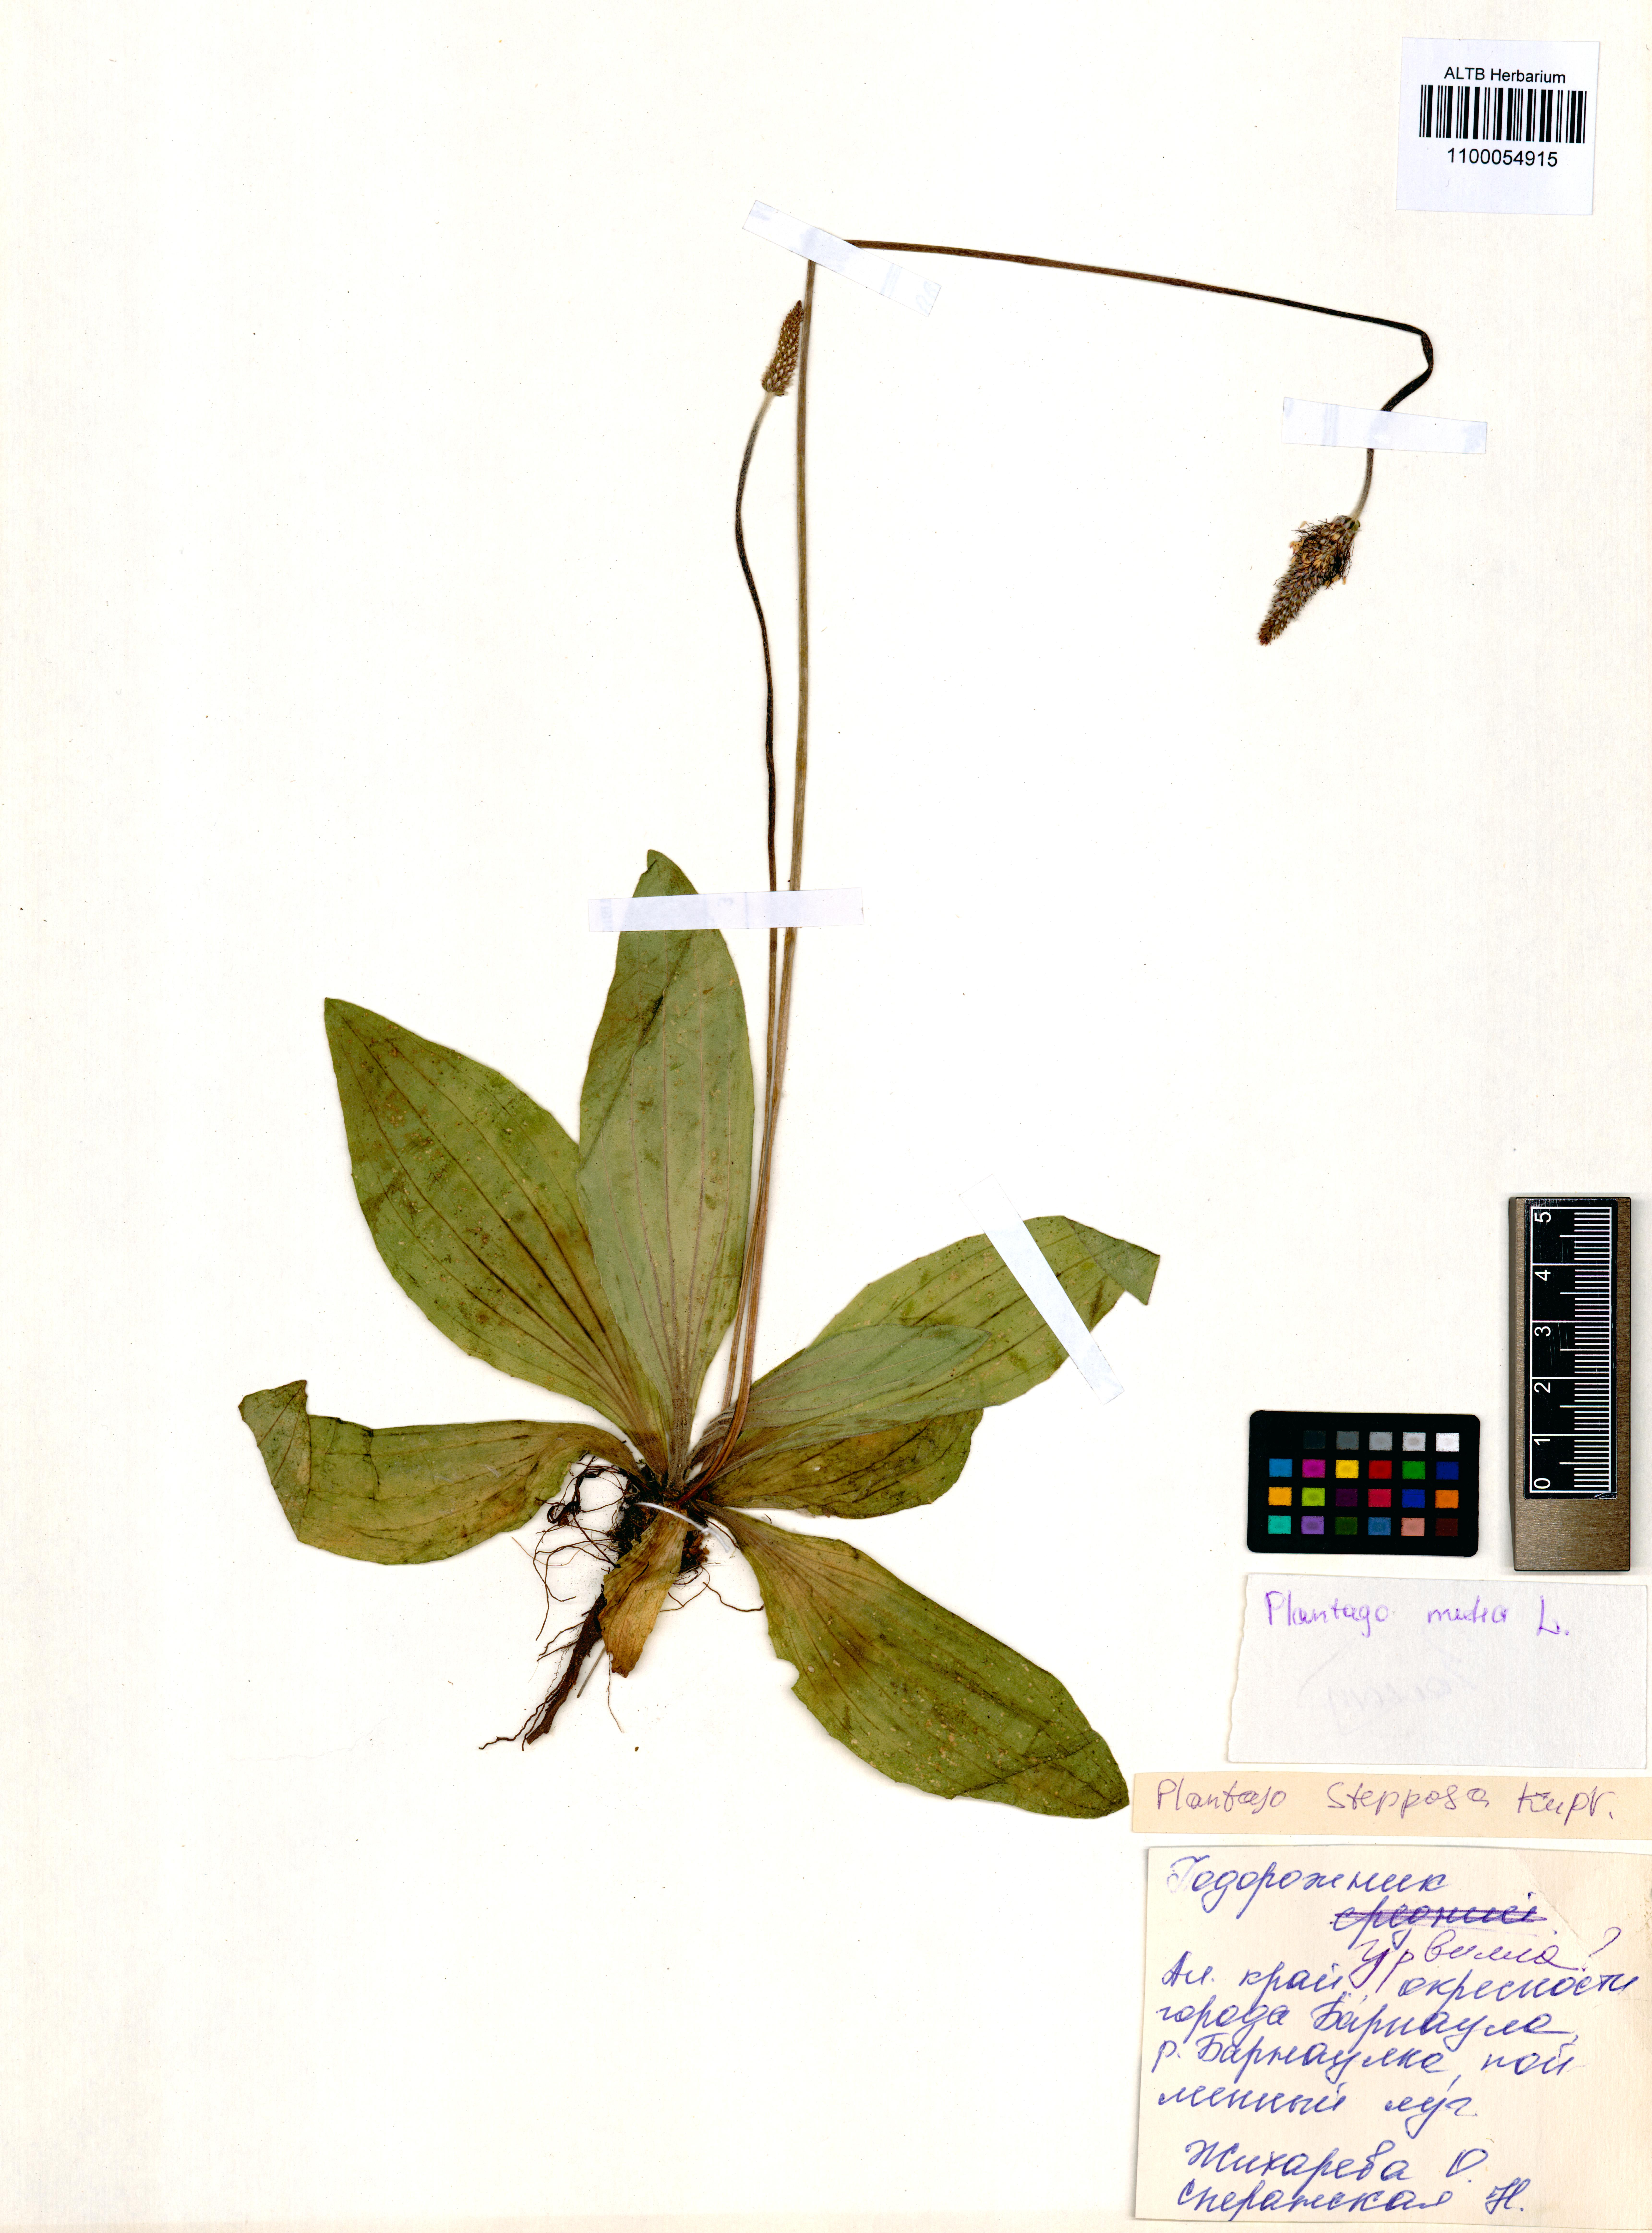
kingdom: Plantae
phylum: Tracheophyta
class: Magnoliopsida
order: Lamiales
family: Plantaginaceae
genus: Plantago
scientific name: Plantago media
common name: Hoary plantain
